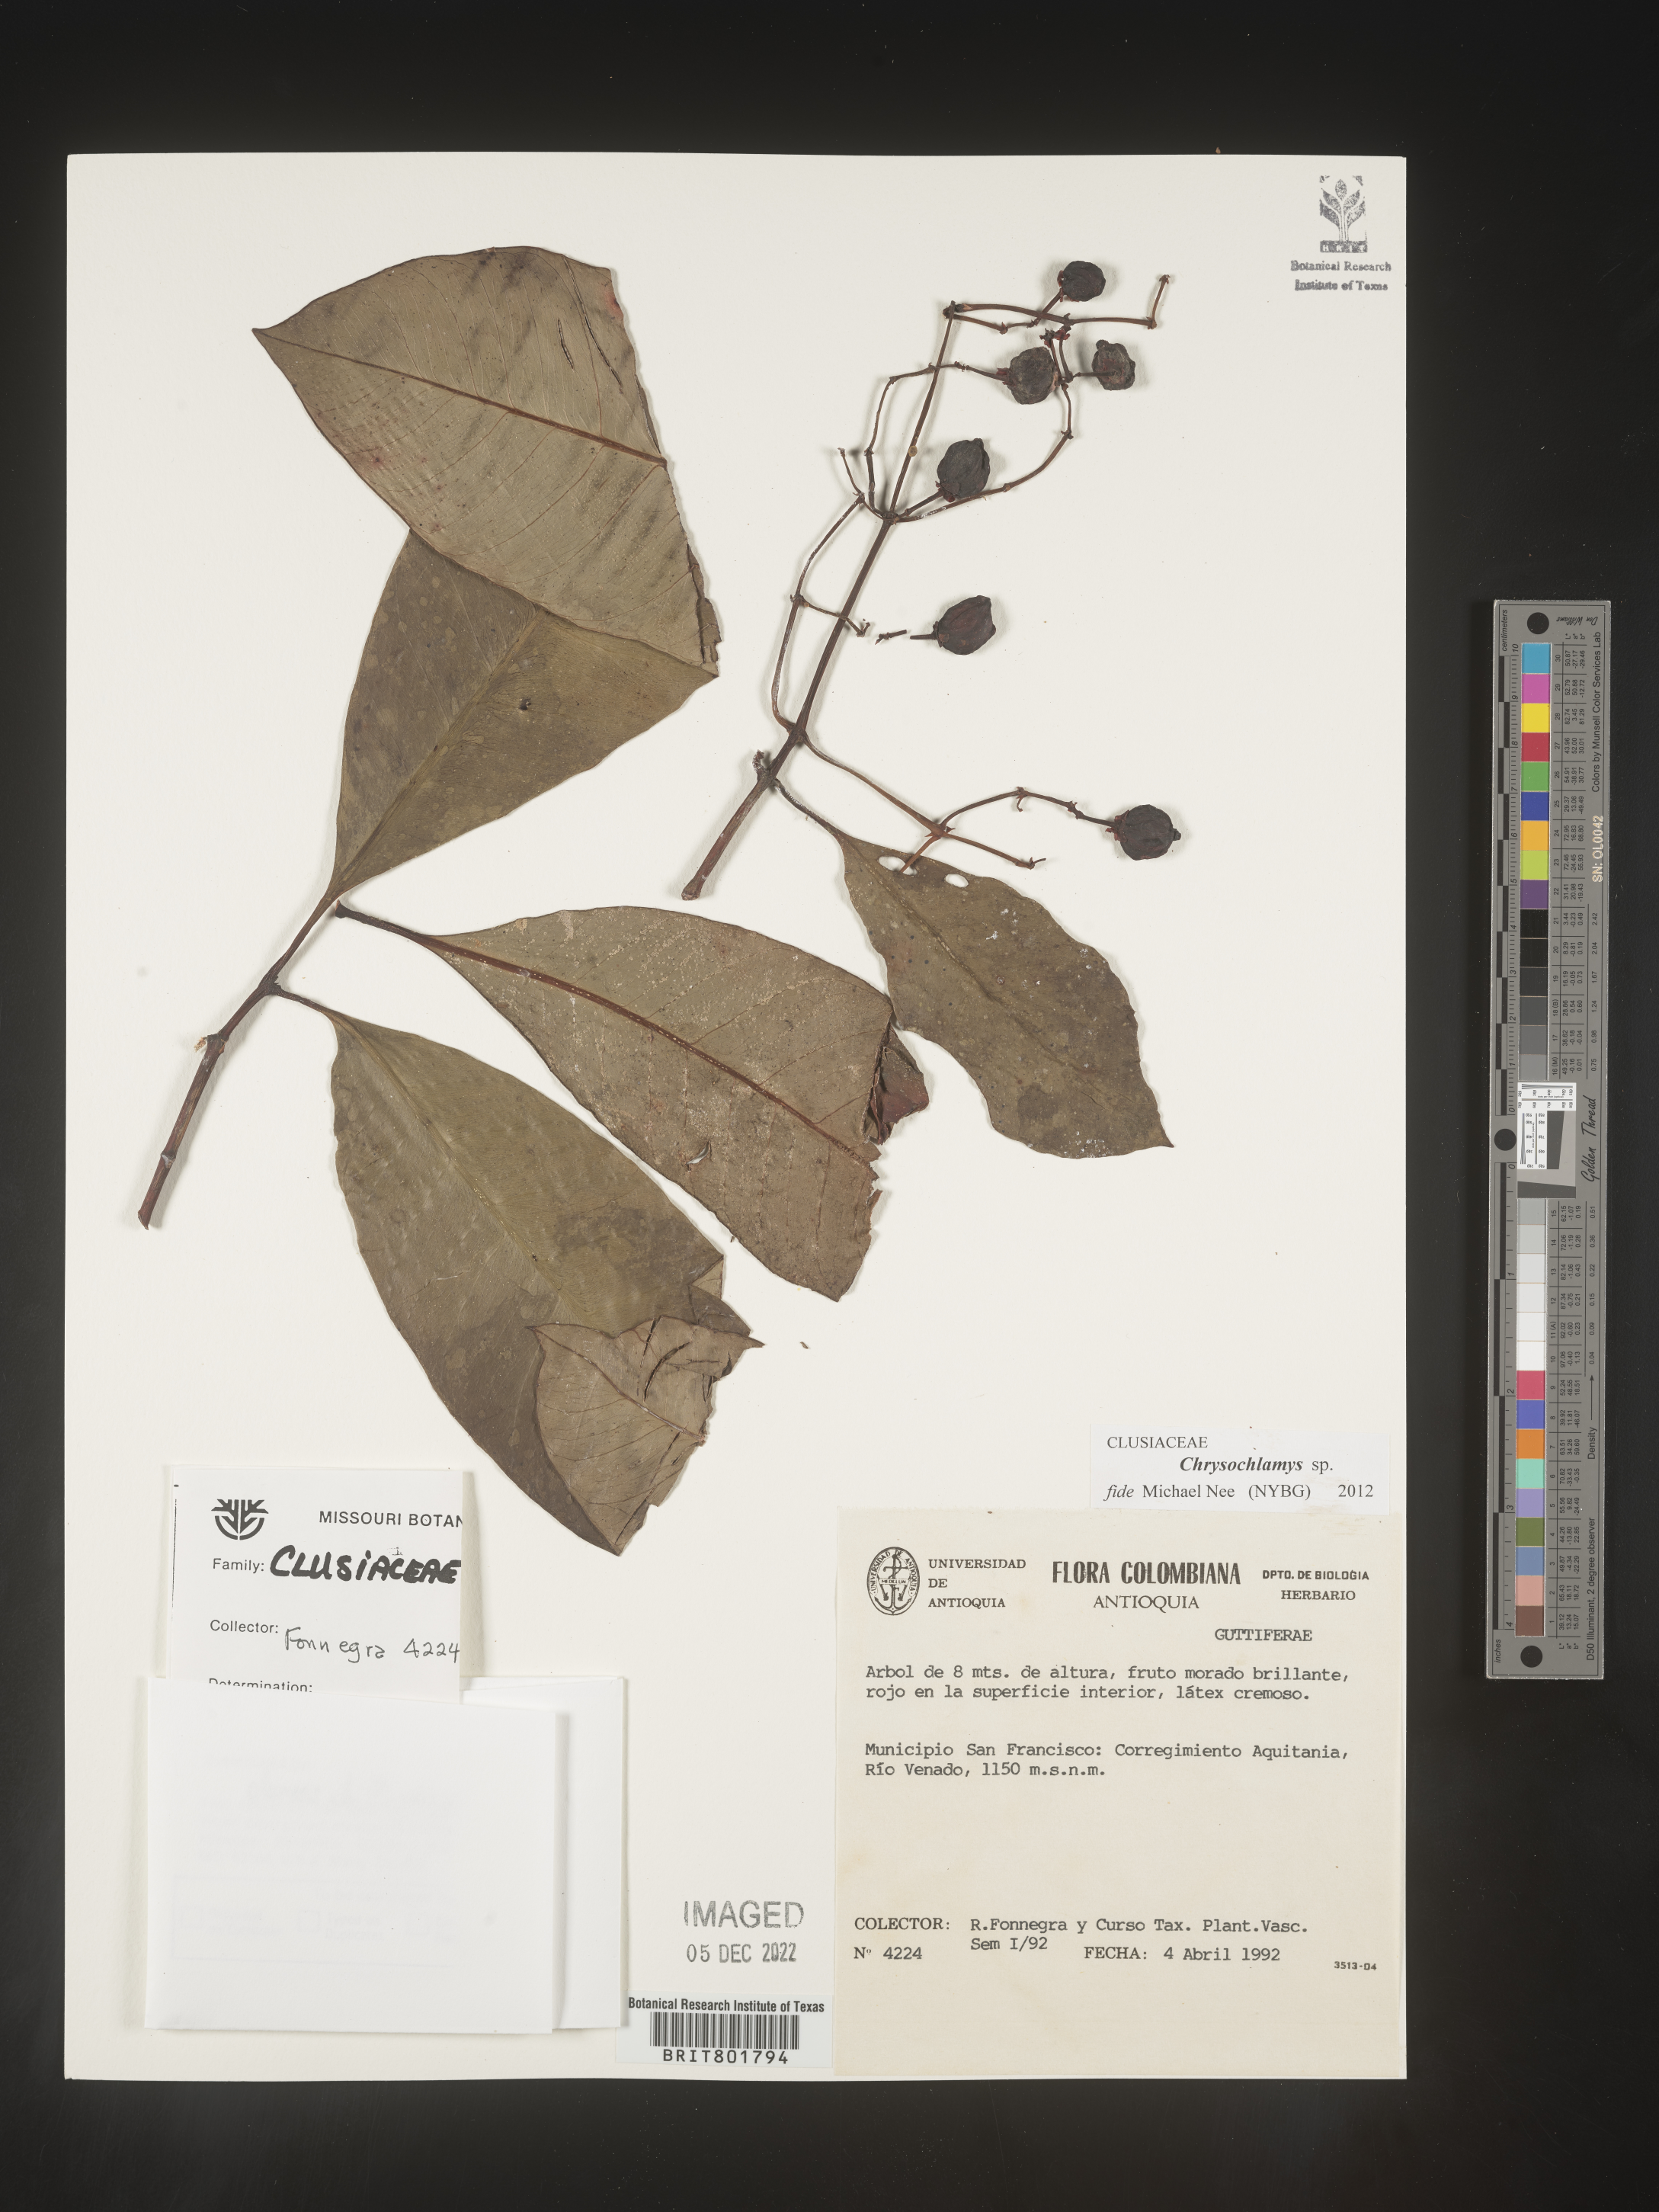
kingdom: Plantae
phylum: Tracheophyta
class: Magnoliopsida
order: Malpighiales
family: Clusiaceae
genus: Chrysochlamys
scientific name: Chrysochlamys
